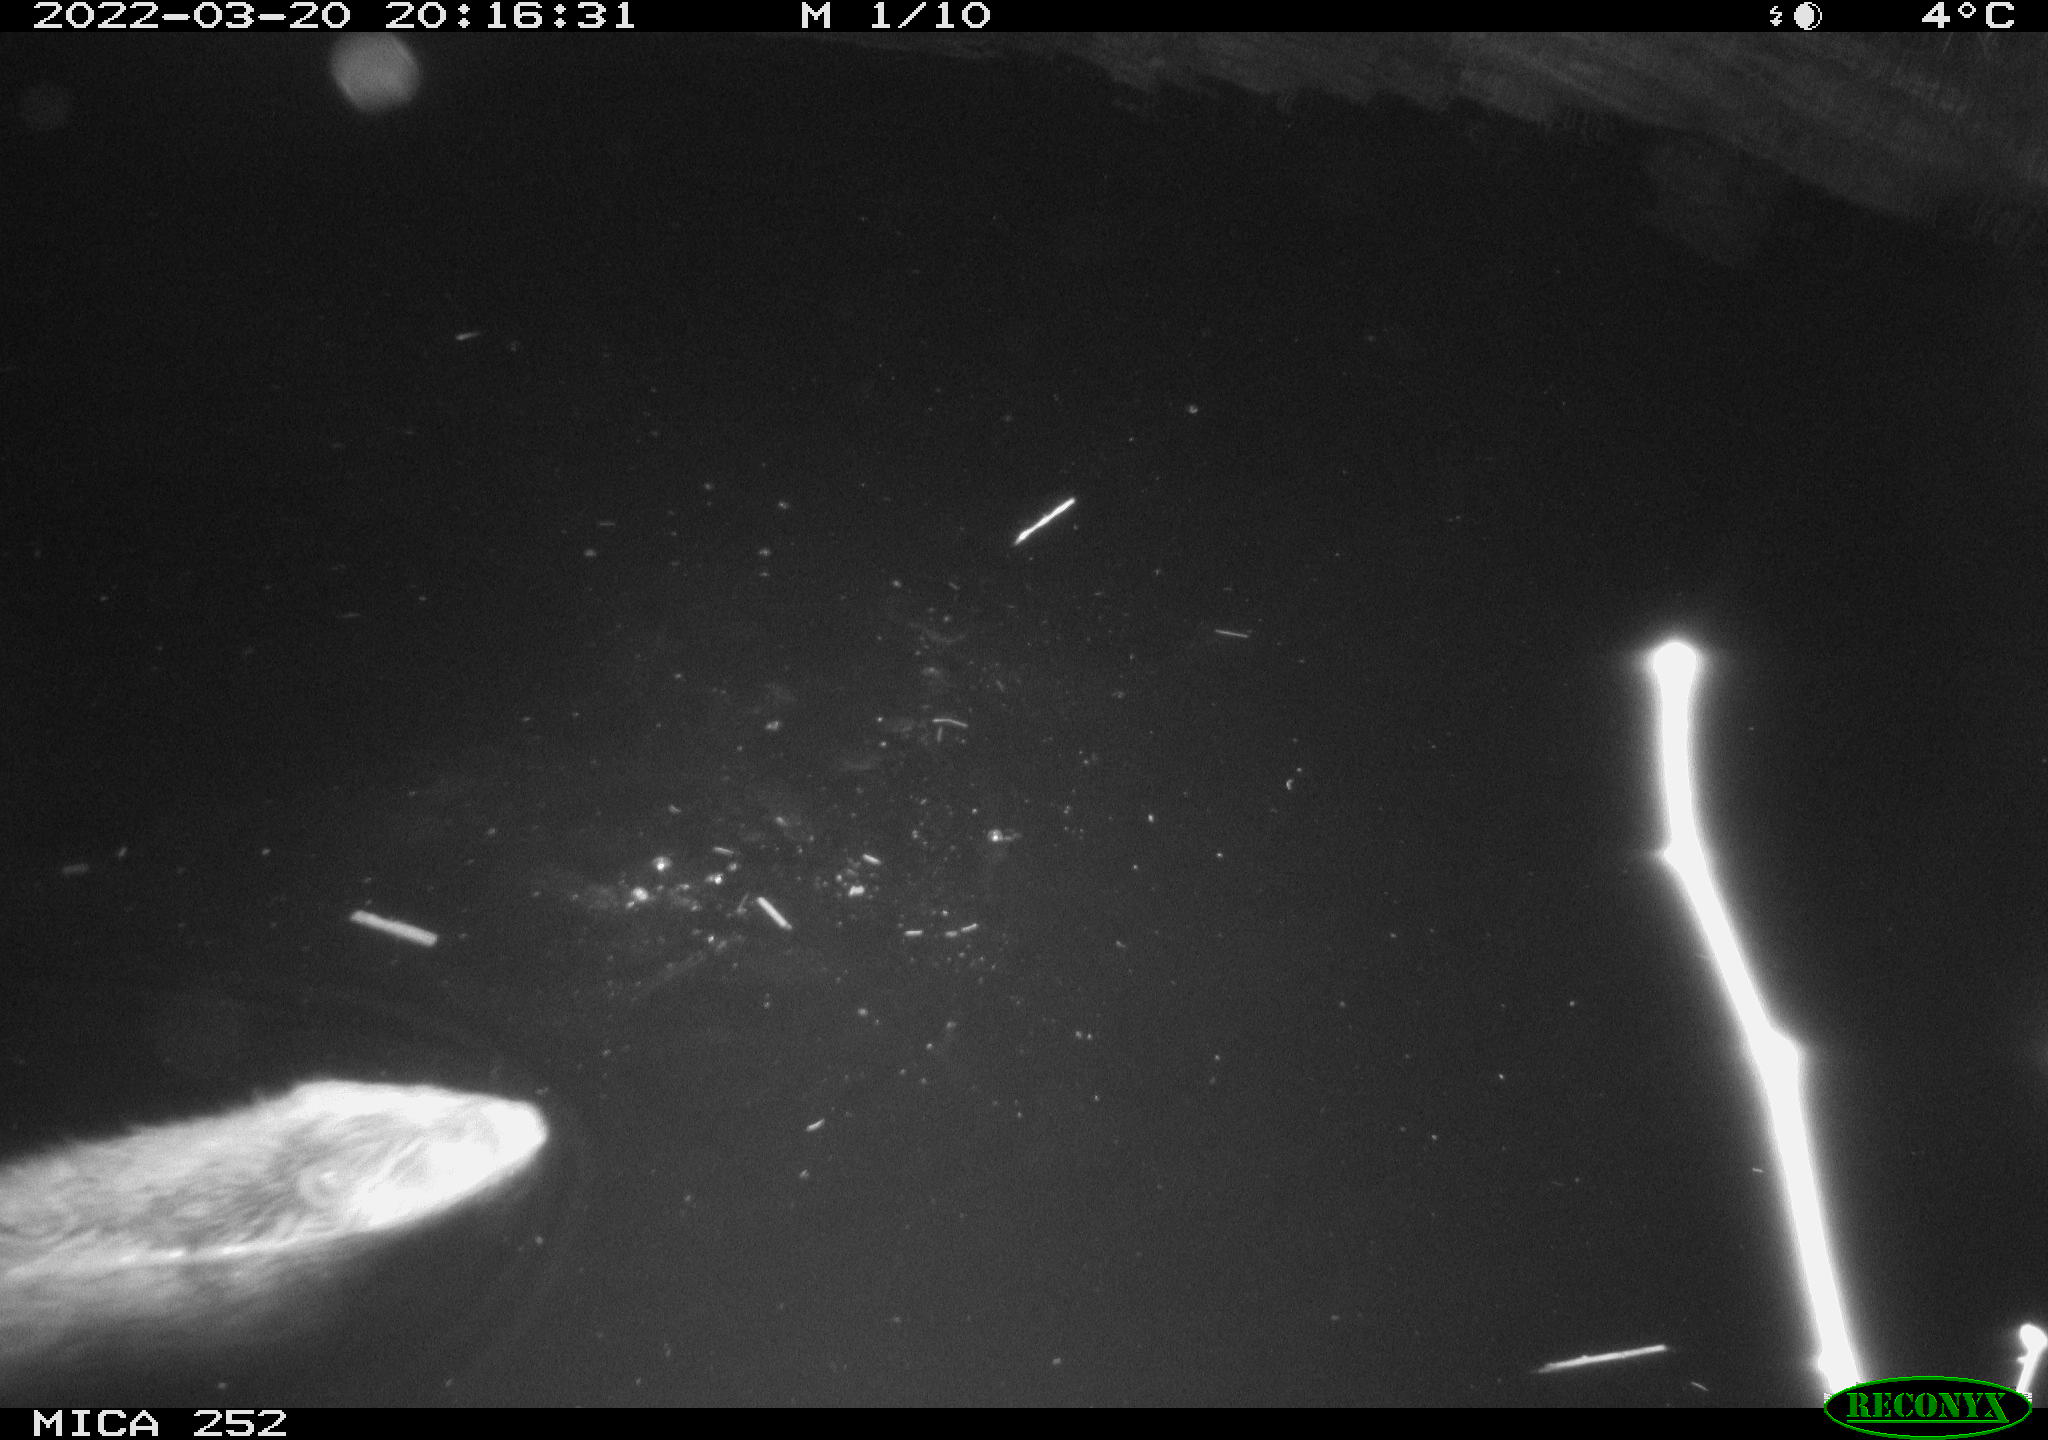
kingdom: Animalia
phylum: Chordata
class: Mammalia
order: Rodentia
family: Castoridae
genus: Castor
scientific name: Castor fiber
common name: Eurasian beaver
